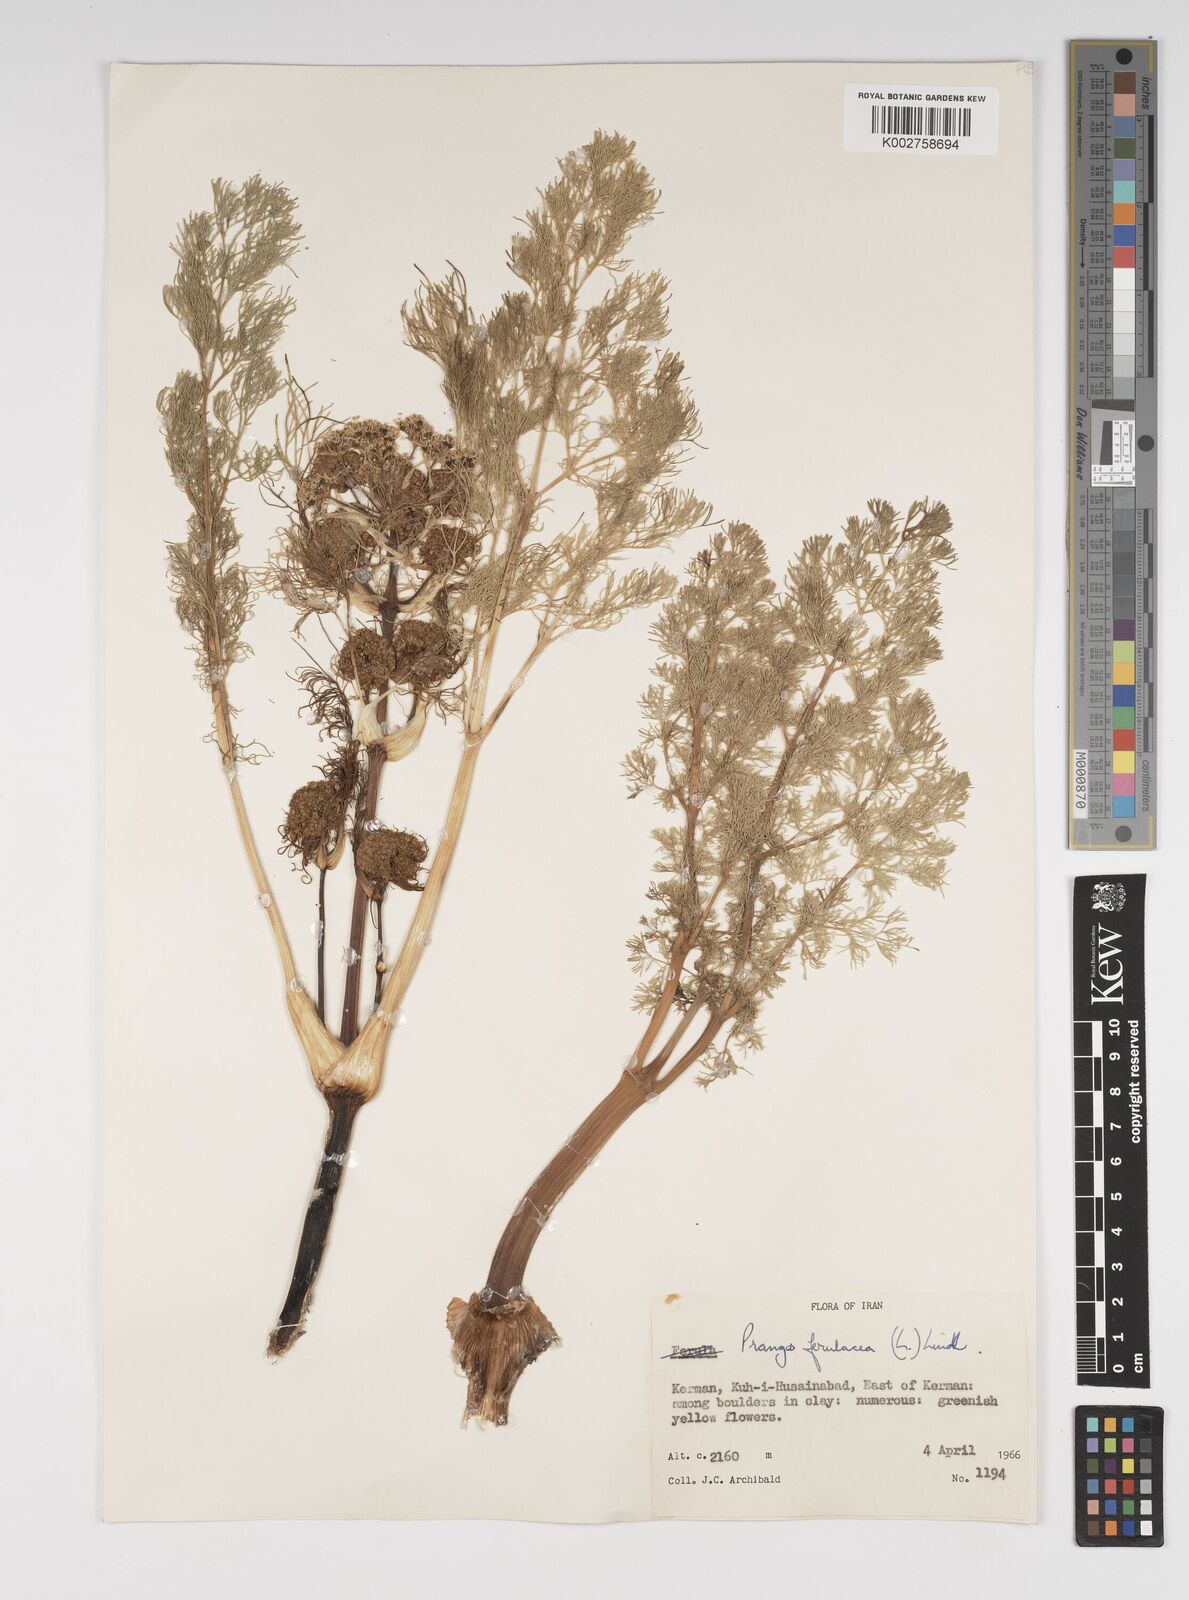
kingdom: Plantae
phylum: Tracheophyta
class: Magnoliopsida
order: Apiales
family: Apiaceae
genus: Prangos
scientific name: Prangos ferulacea
